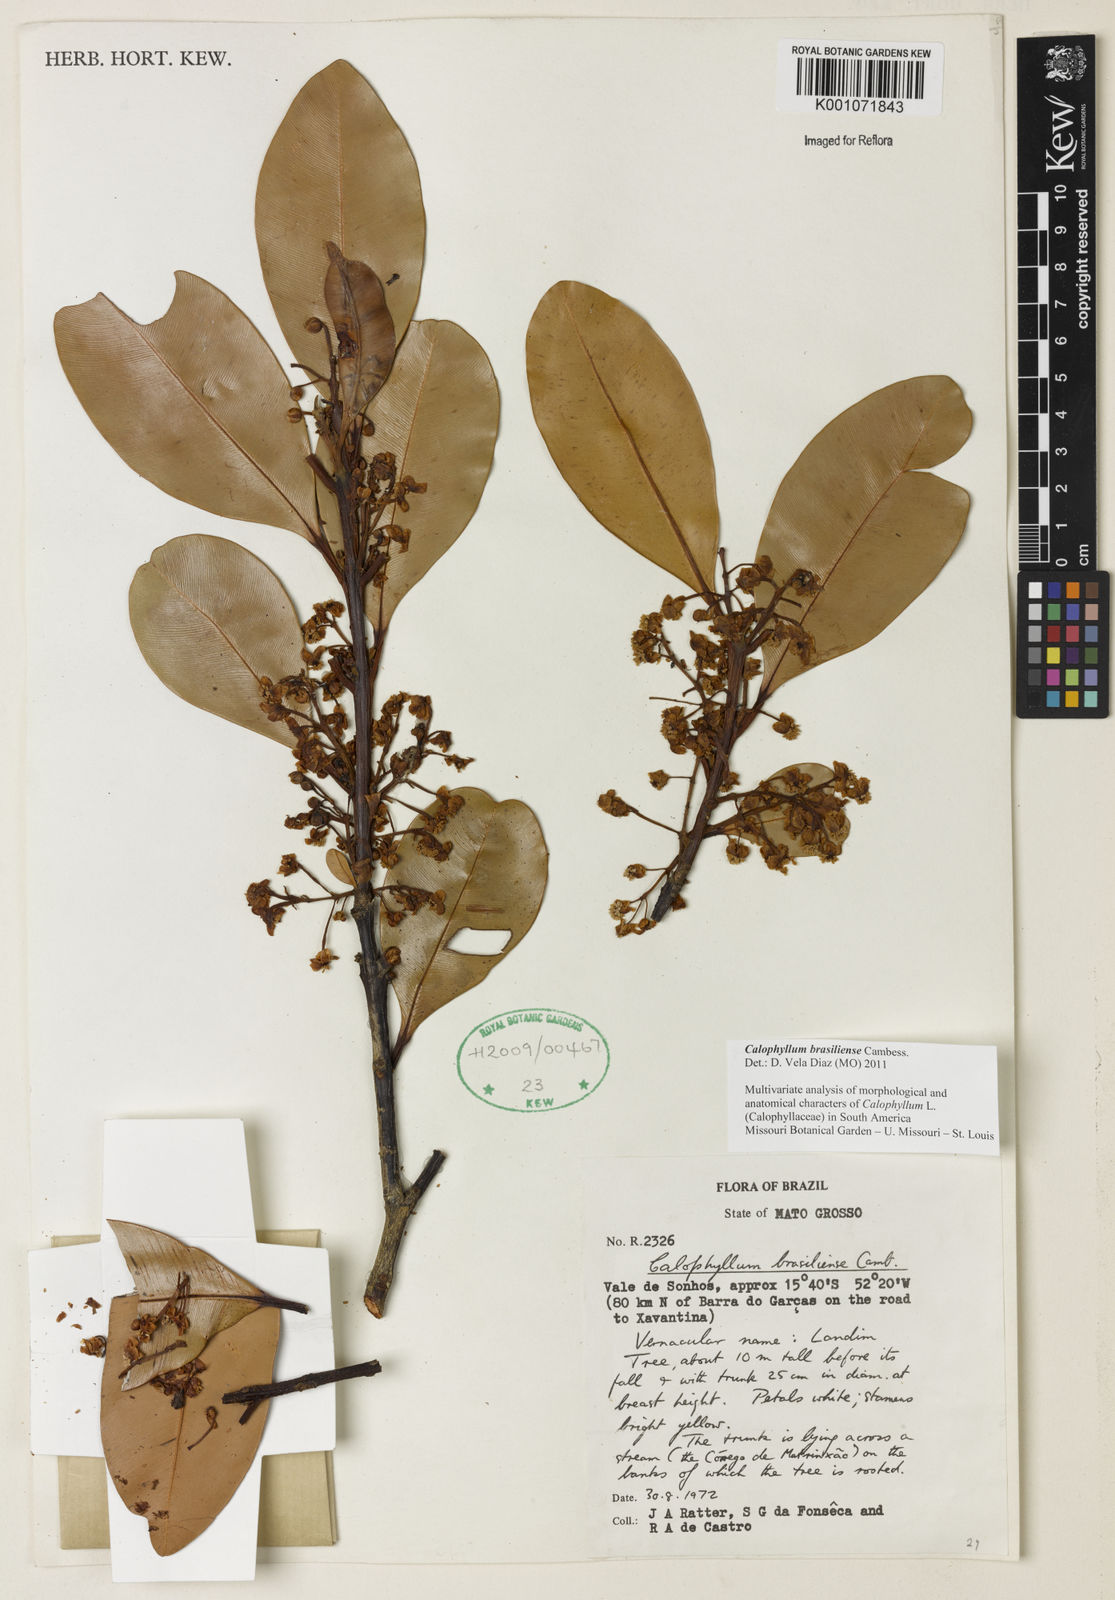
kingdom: Plantae
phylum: Tracheophyta
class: Magnoliopsida
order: Malpighiales
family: Calophyllaceae
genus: Calophyllum
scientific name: Calophyllum brasiliense
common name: Santa maria
